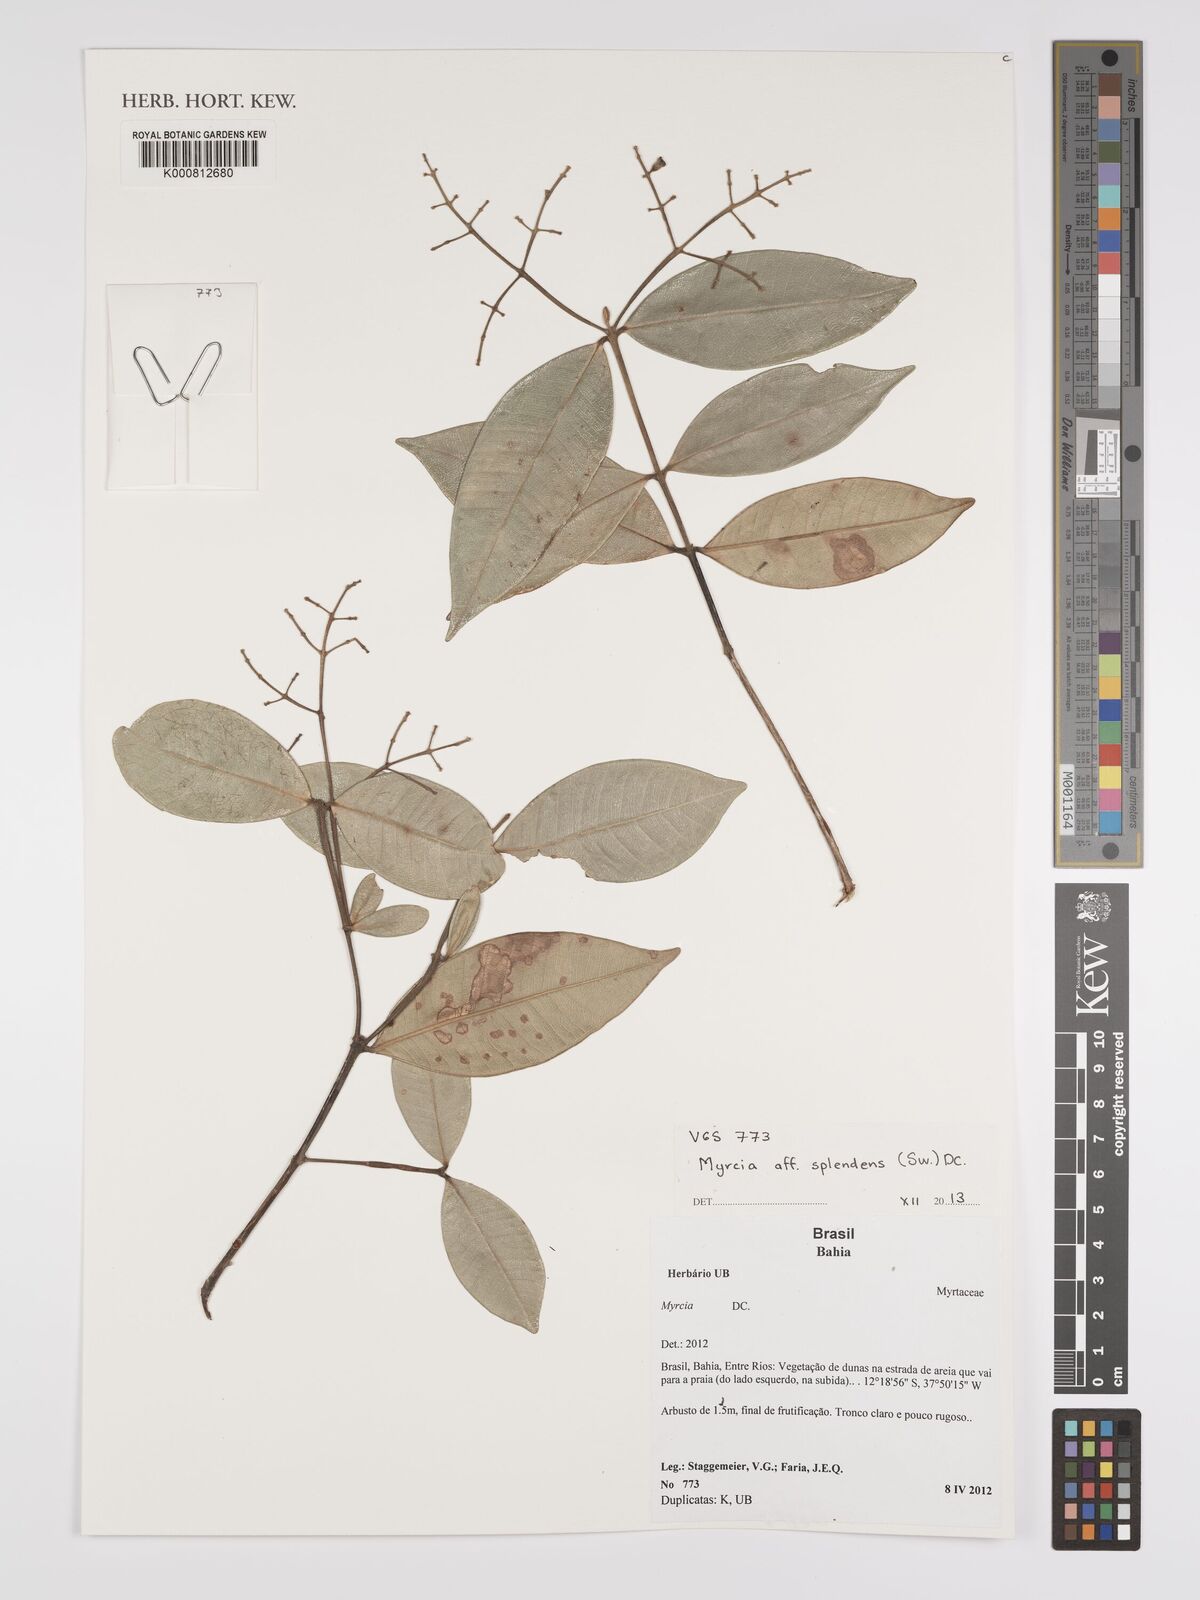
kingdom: Plantae
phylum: Tracheophyta
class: Magnoliopsida
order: Myrtales
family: Myrtaceae
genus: Myrcia
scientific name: Myrcia splendens
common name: Surinam cherry
